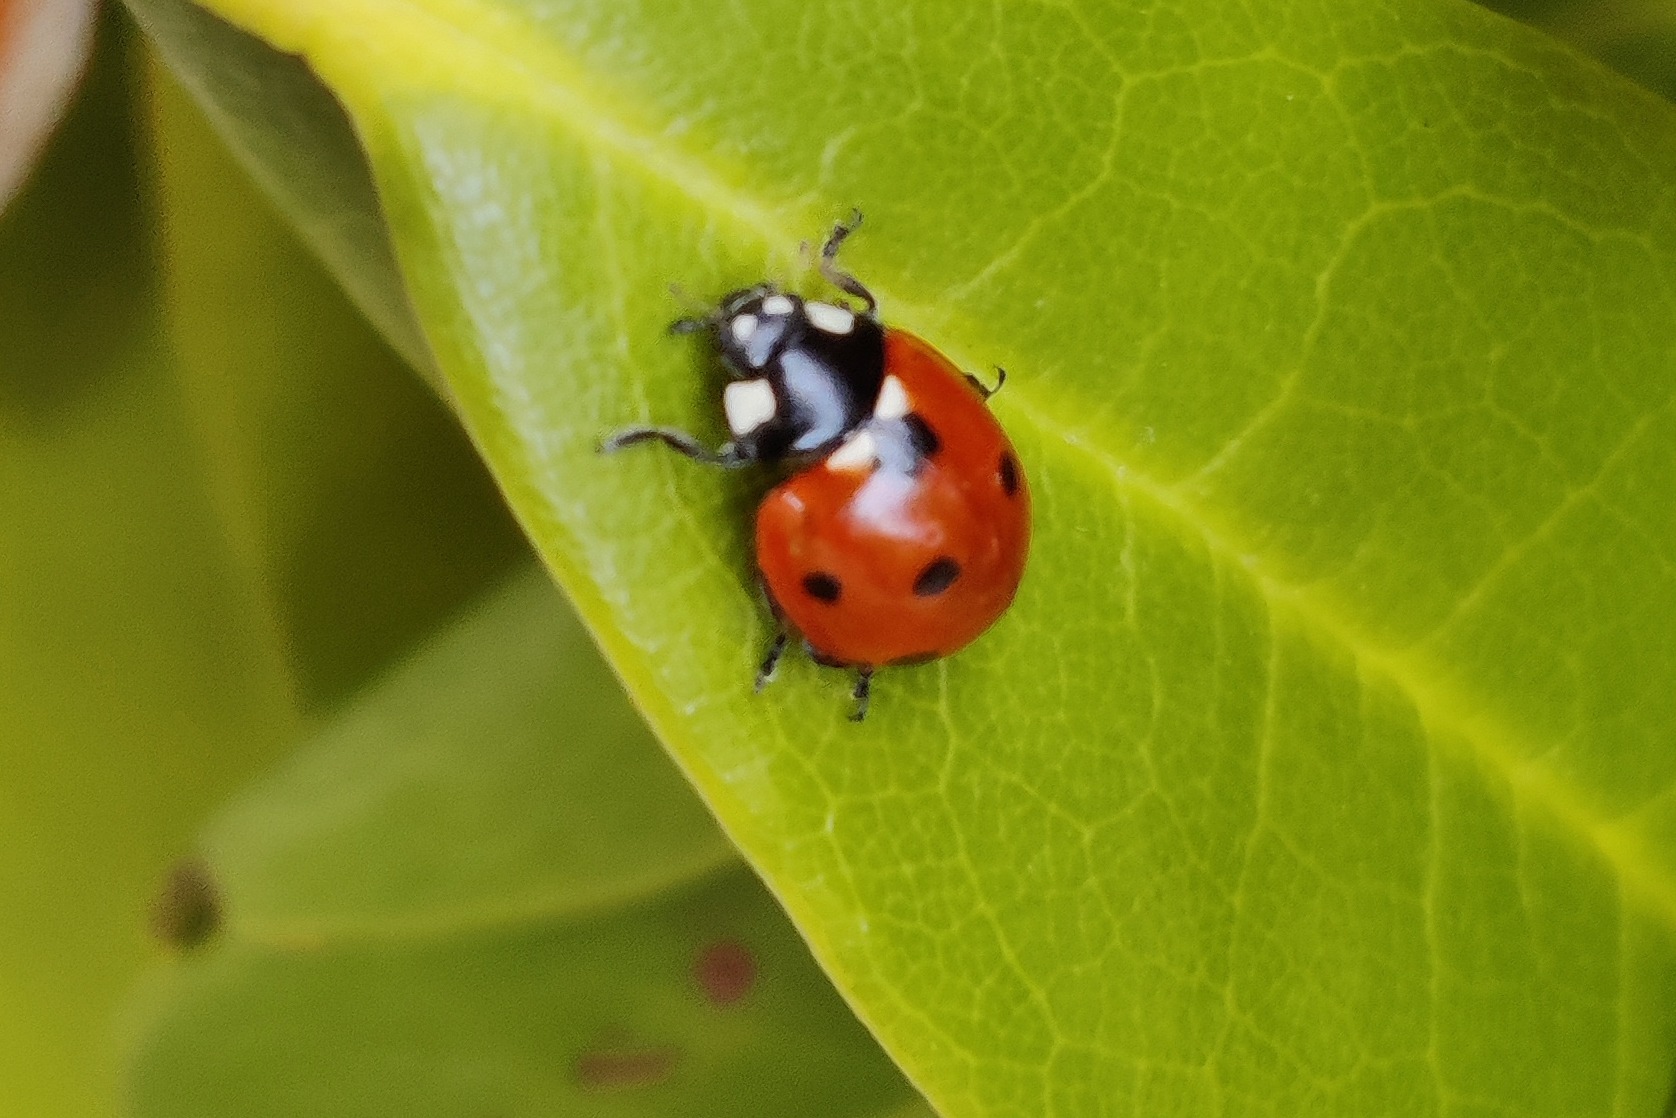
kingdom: Animalia
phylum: Arthropoda
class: Insecta
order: Coleoptera
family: Coccinellidae
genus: Coccinella
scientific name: Coccinella septempunctata
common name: Syvplettet mariehøne
